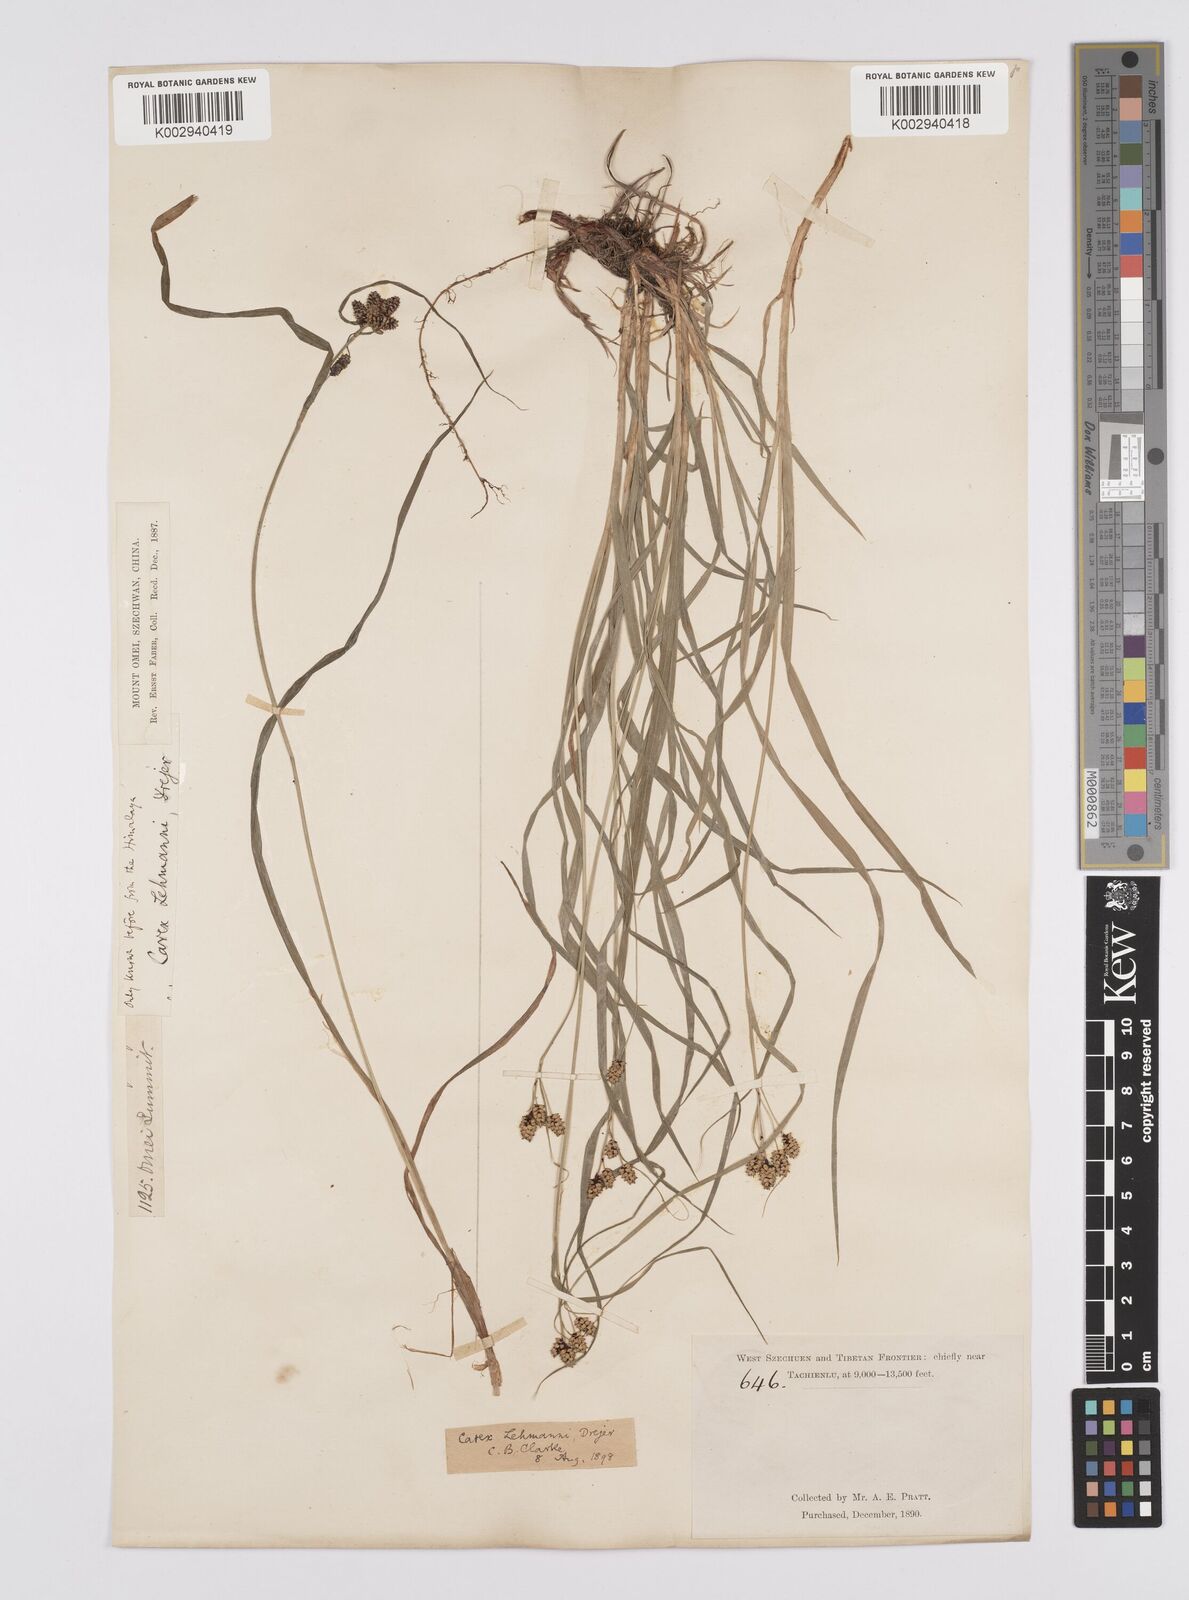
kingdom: Plantae
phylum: Tracheophyta
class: Liliopsida
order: Poales
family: Cyperaceae
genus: Carex
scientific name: Carex lehmannii
